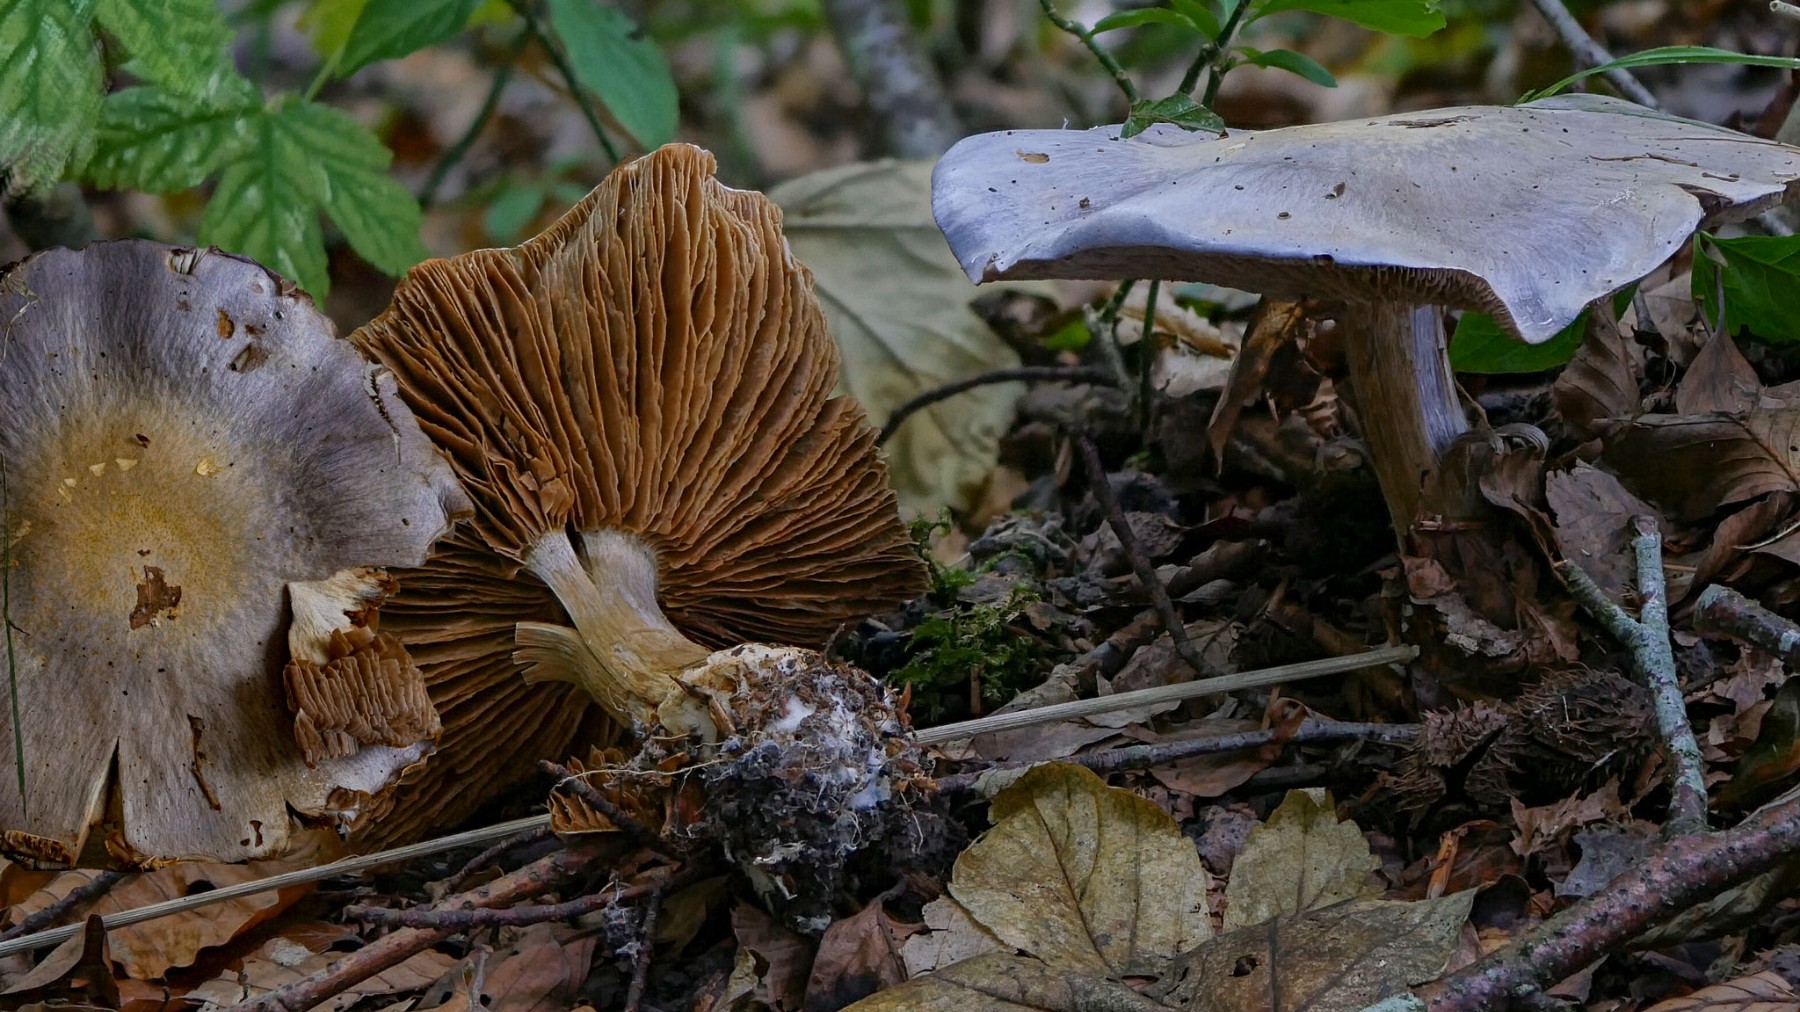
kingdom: Fungi
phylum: Basidiomycota
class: Agaricomycetes
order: Agaricales
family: Cortinariaceae
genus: Cortinarius
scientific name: Cortinarius caerulescens
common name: blåkødet slørhat
